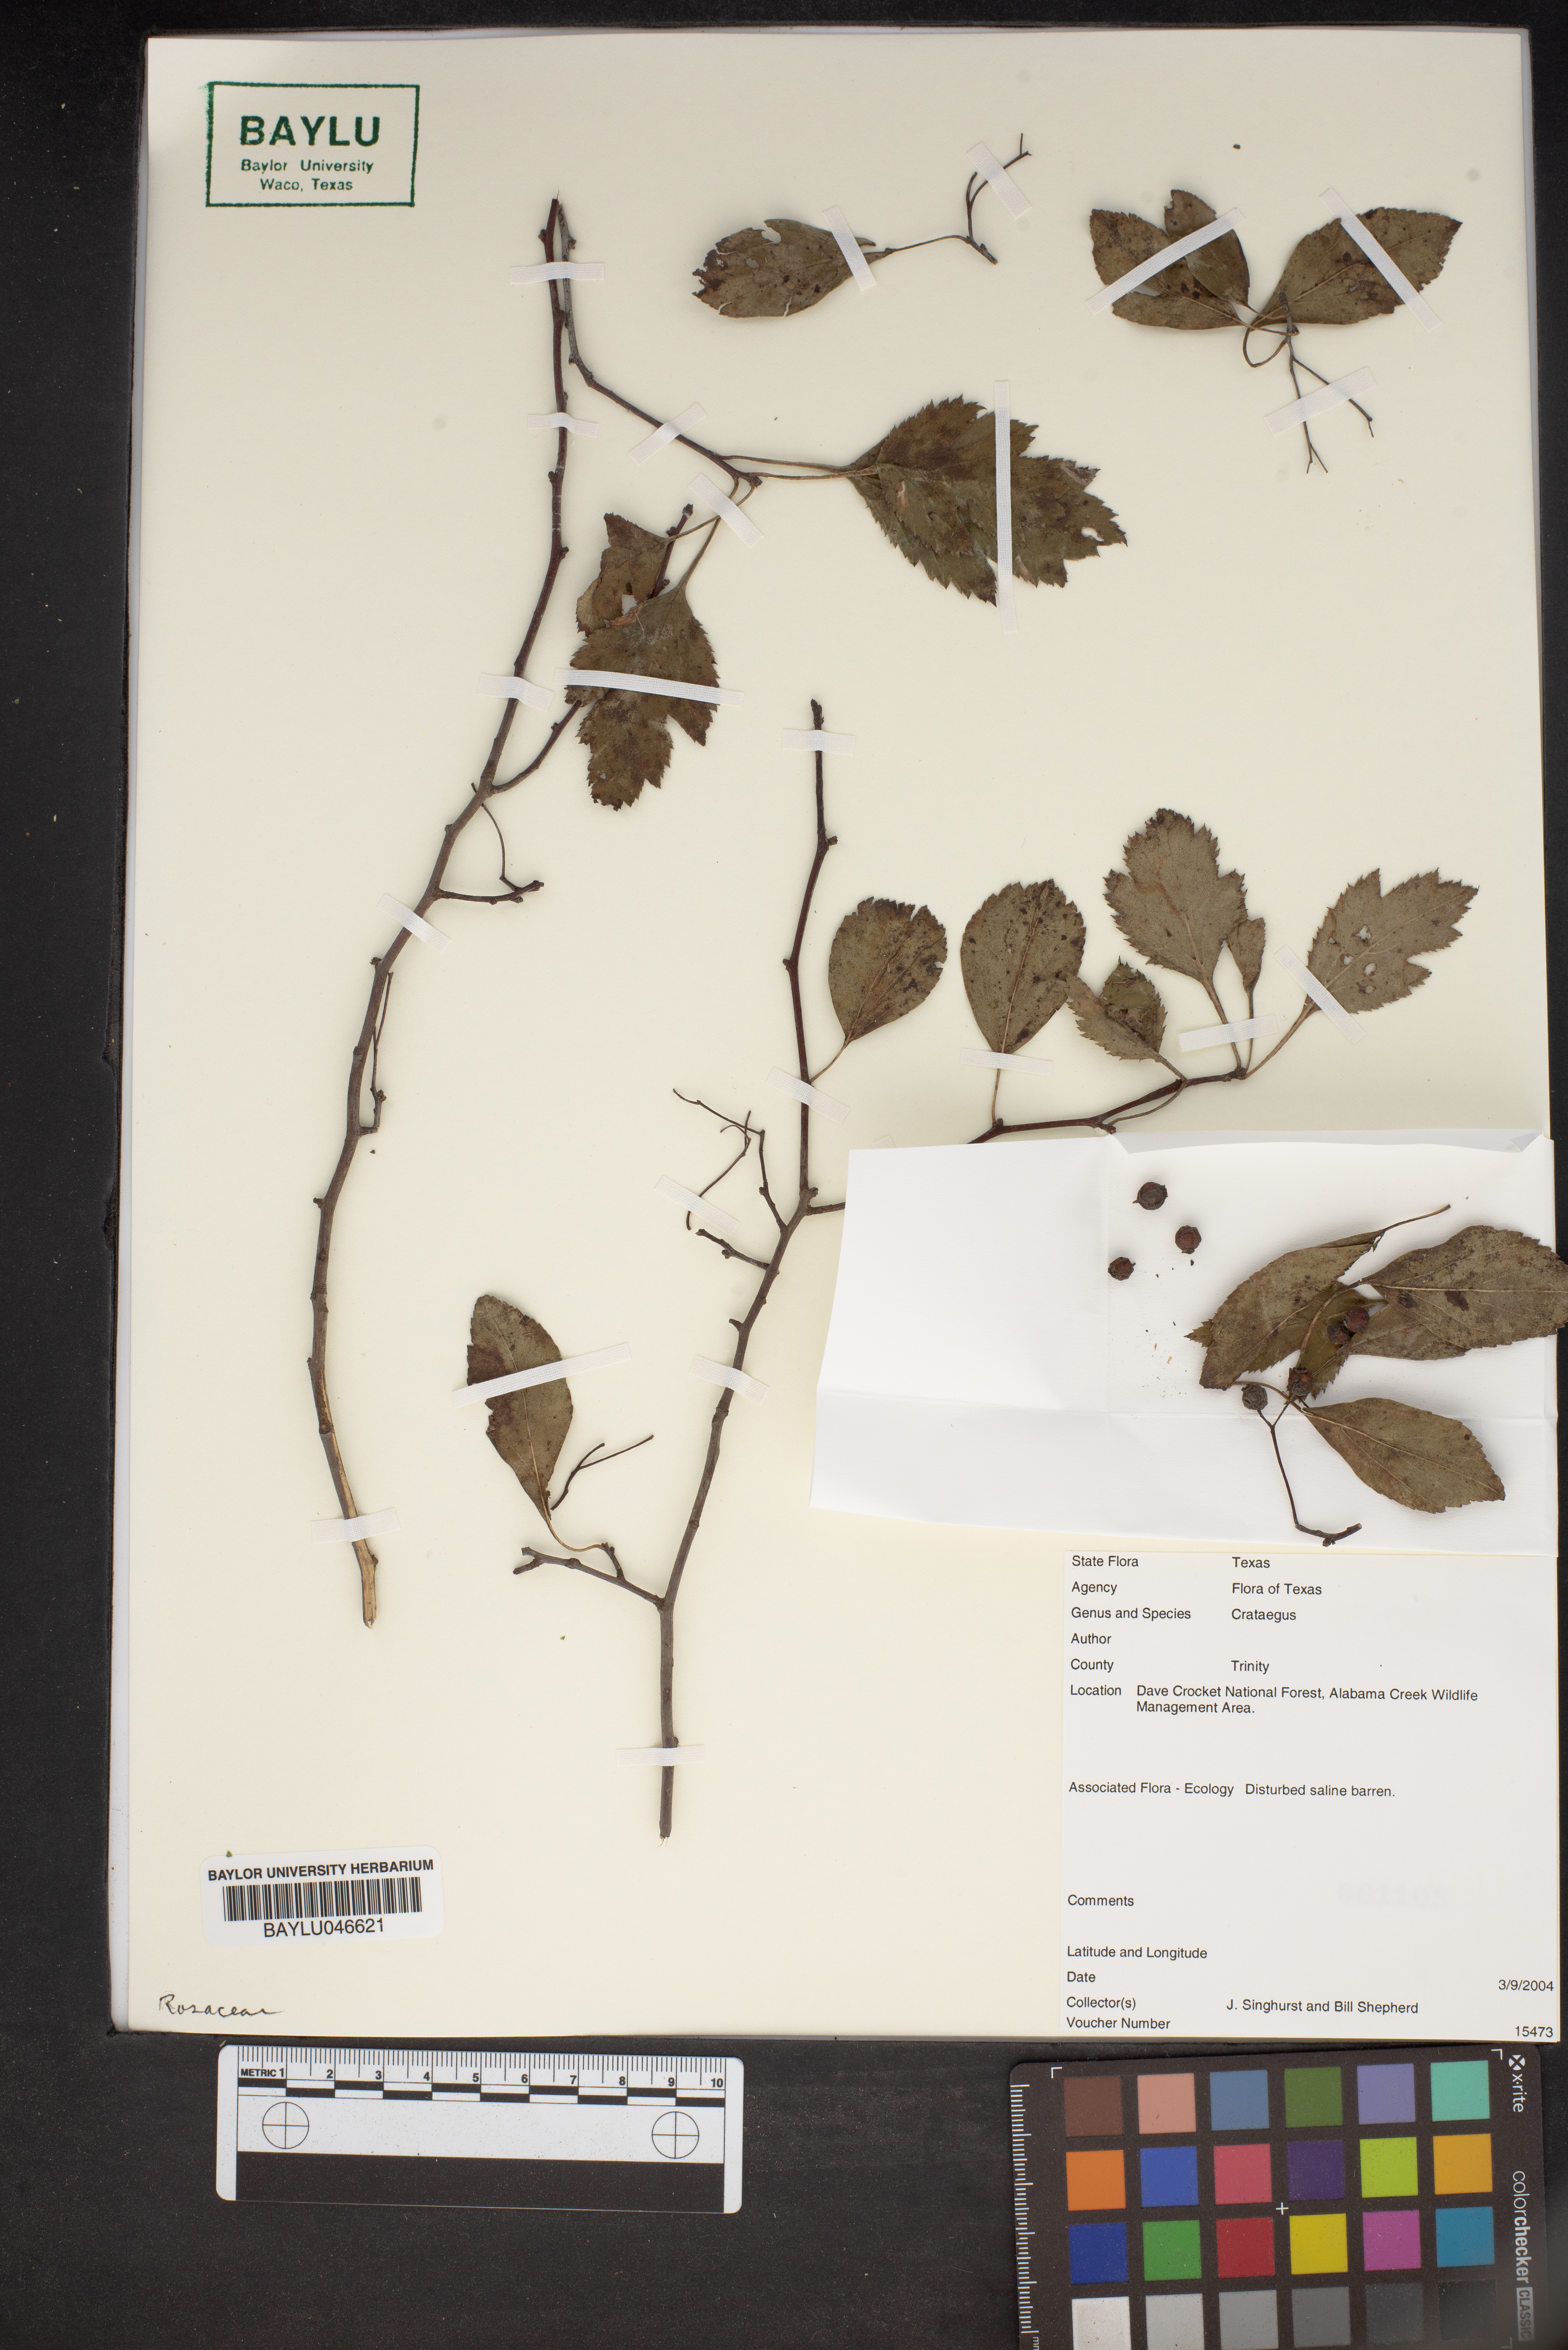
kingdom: Plantae
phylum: Tracheophyta
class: Magnoliopsida
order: Rosales
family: Rosaceae
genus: Crataegus
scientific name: Crataegus
